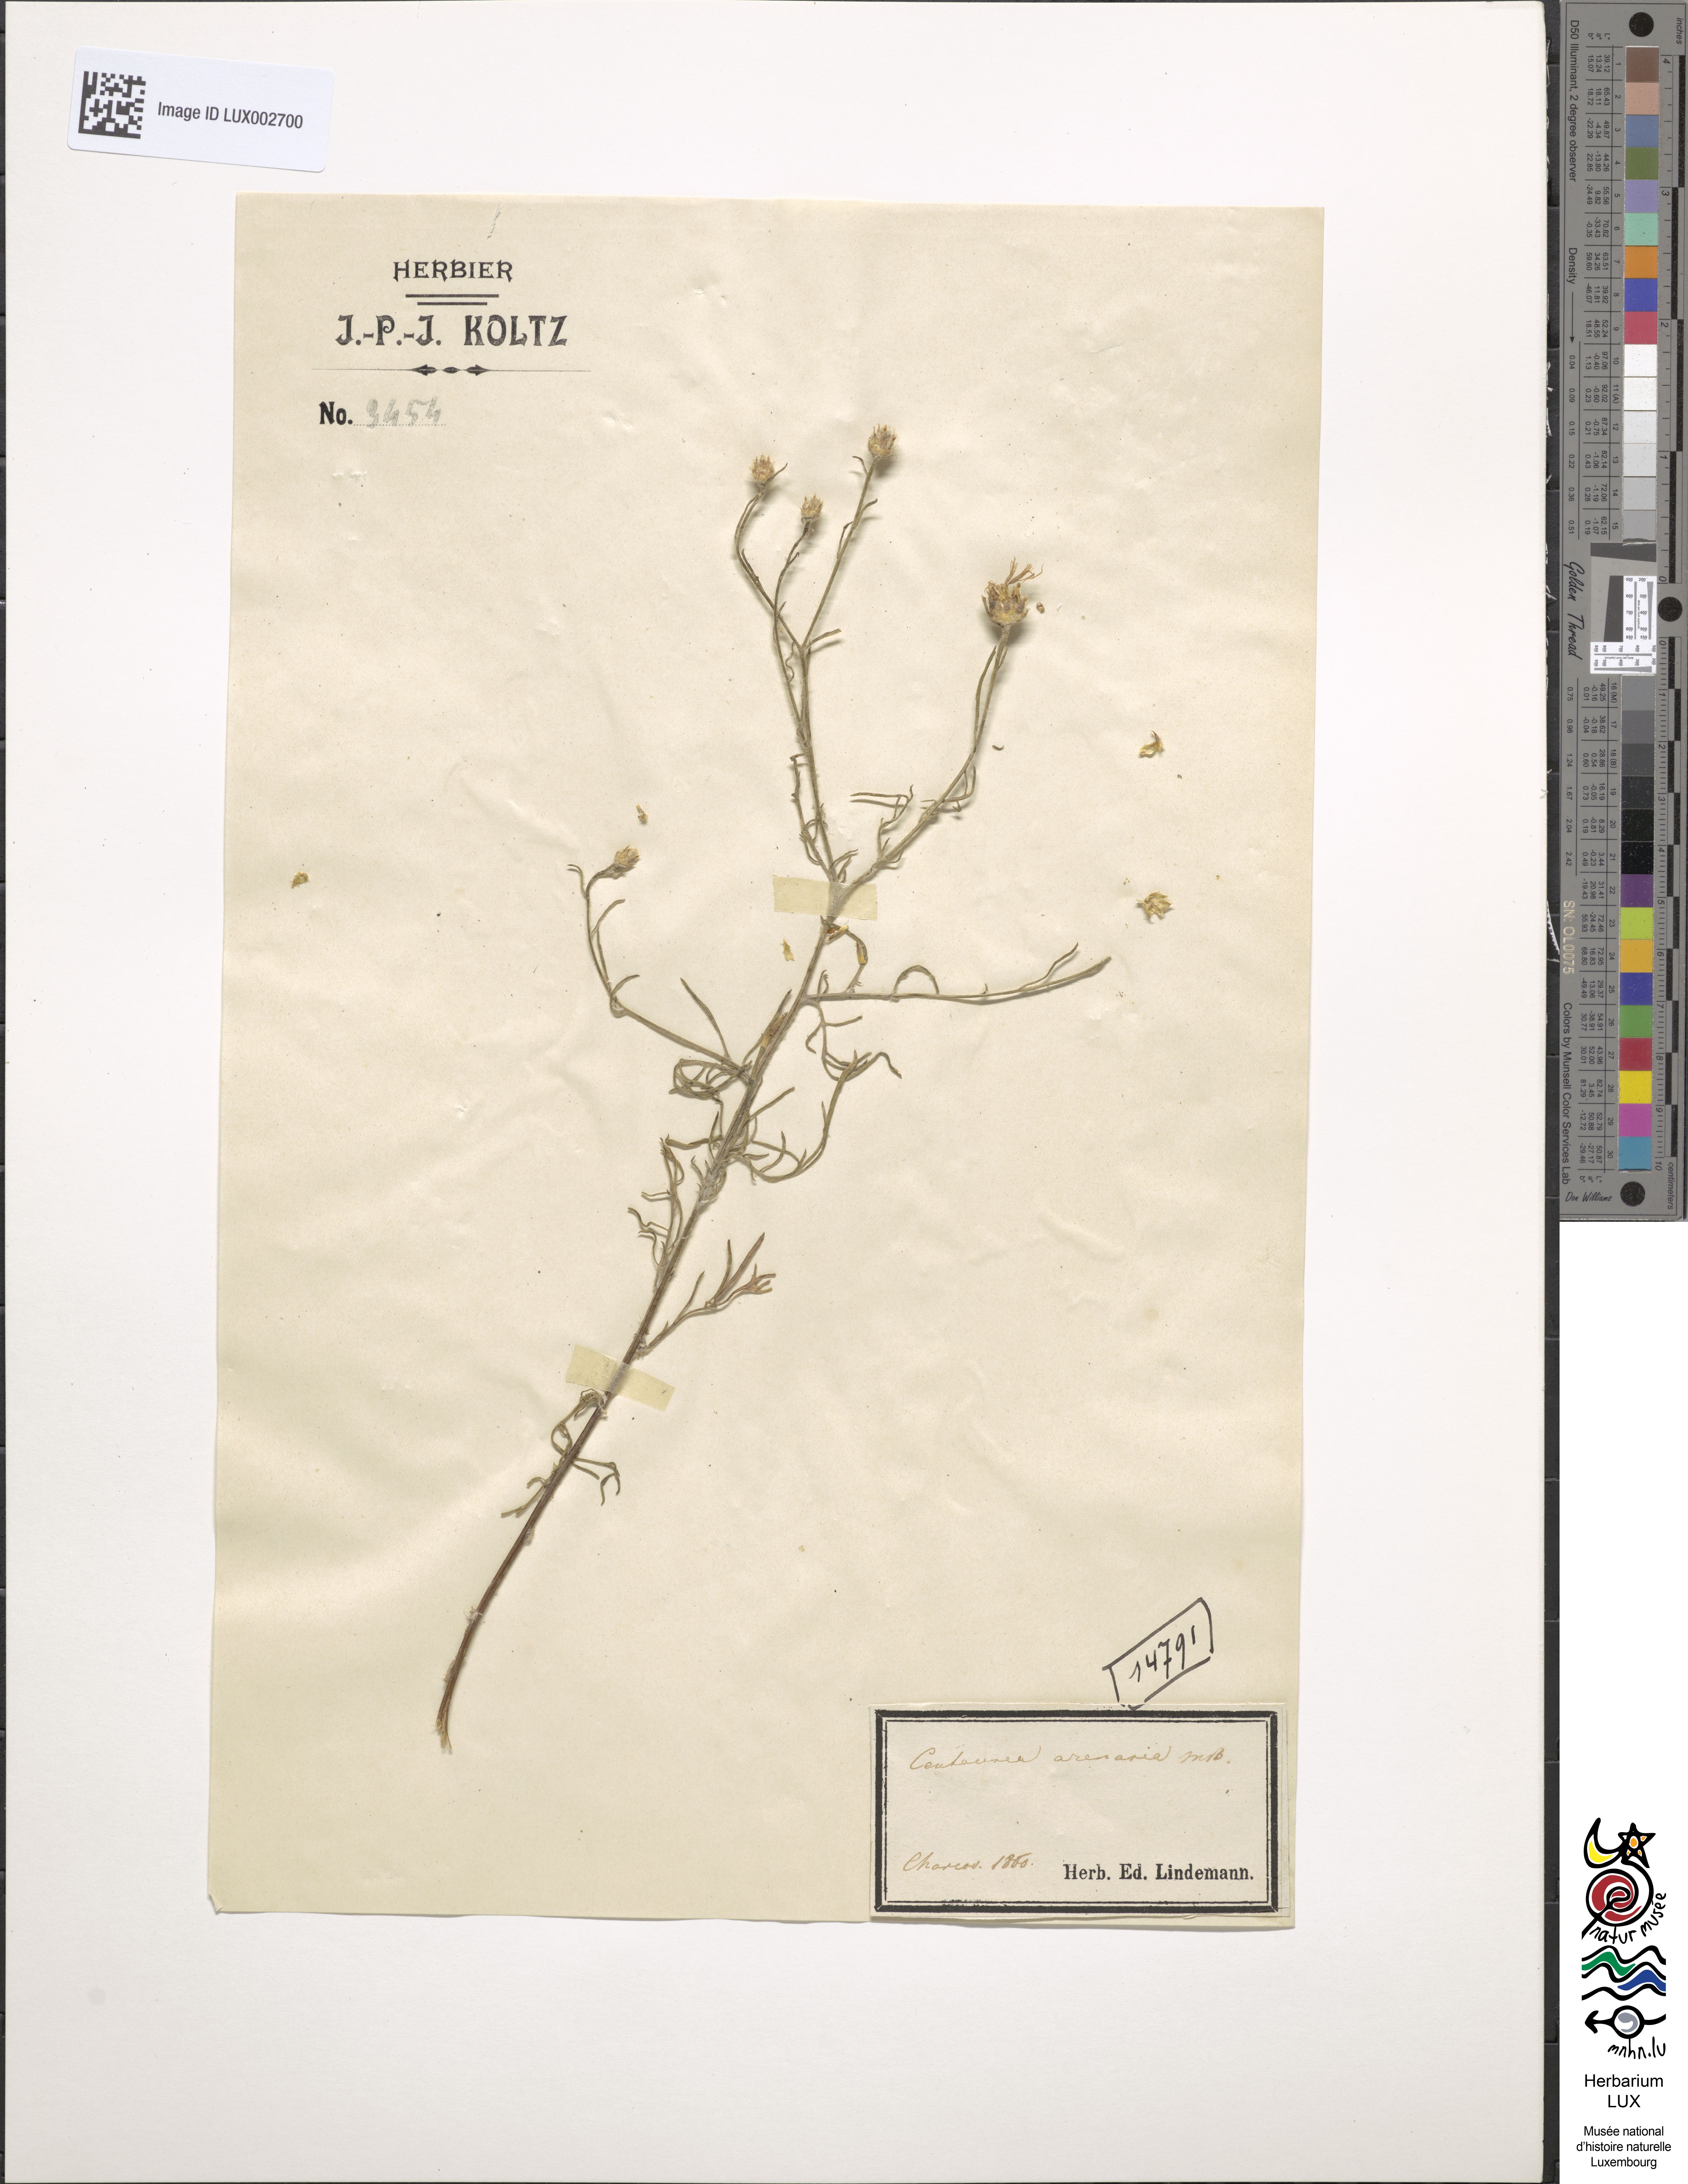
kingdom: Plantae
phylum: Tracheophyta
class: Magnoliopsida
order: Asterales
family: Asteraceae
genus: Centaurea
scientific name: Centaurea arenaria
